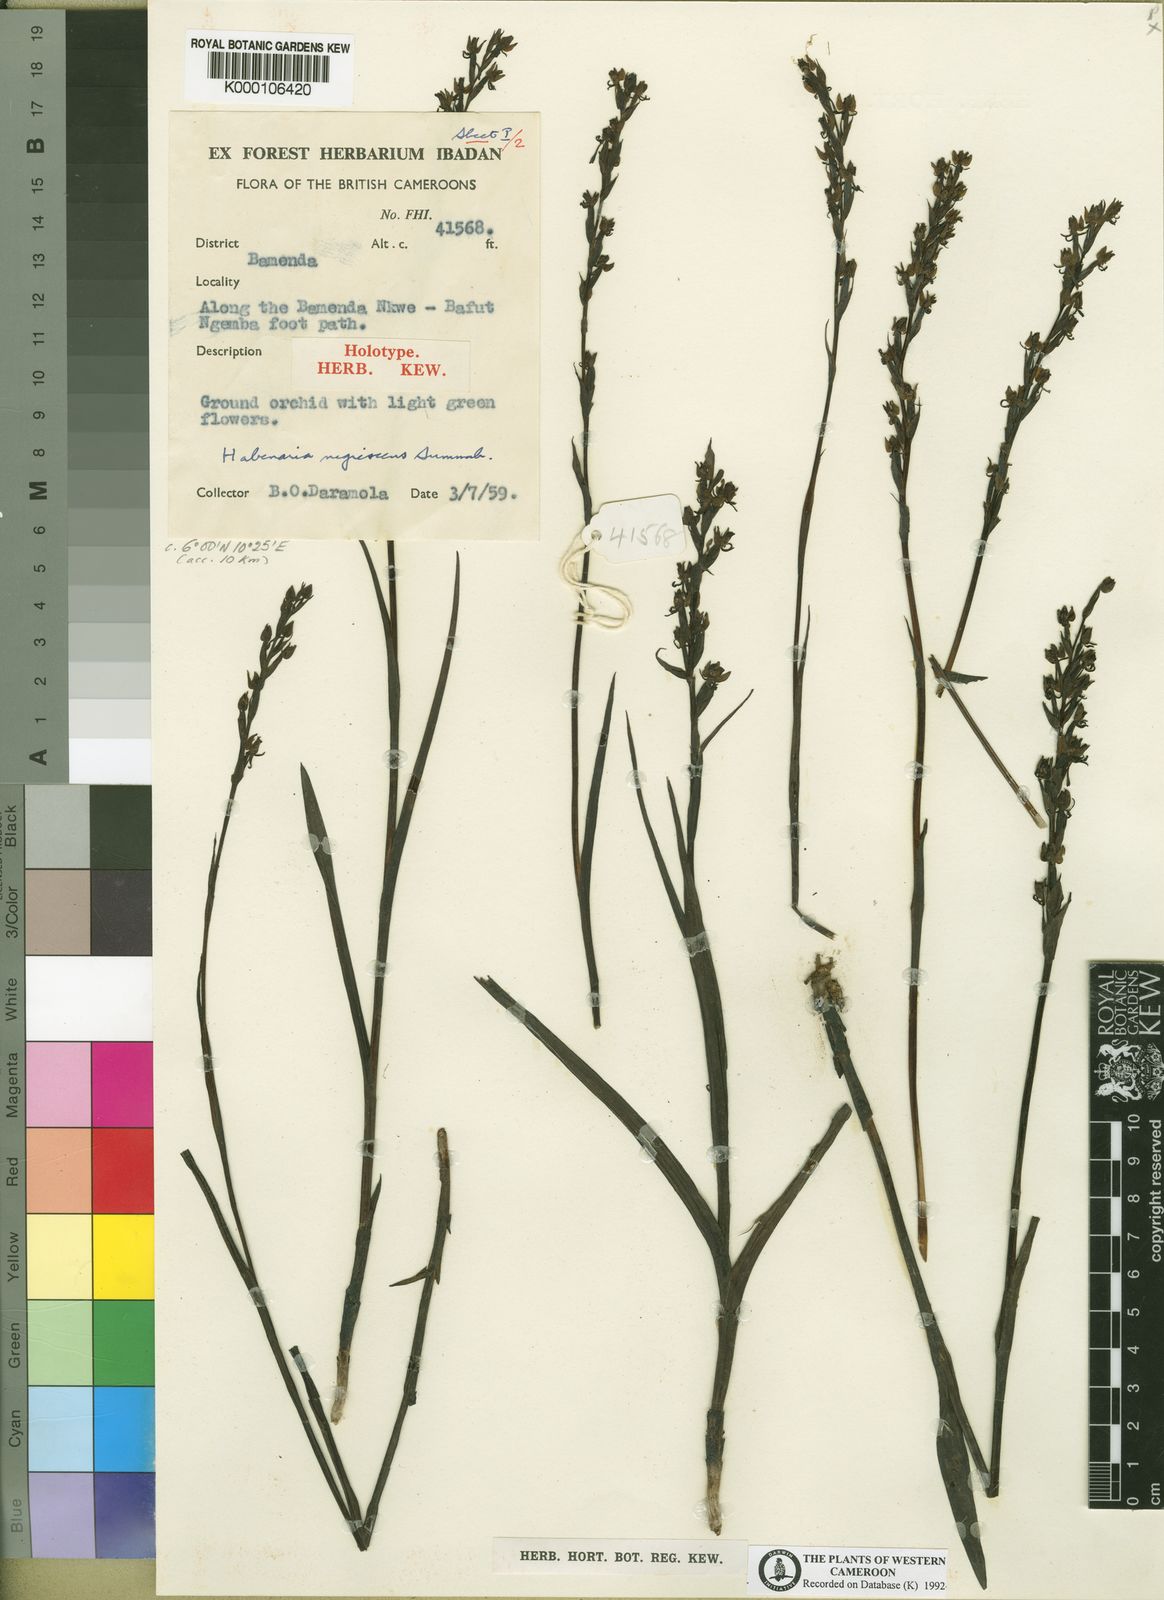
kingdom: Plantae
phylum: Tracheophyta
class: Liliopsida
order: Asparagales
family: Orchidaceae
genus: Habenaria
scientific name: Habenaria nigrescens
